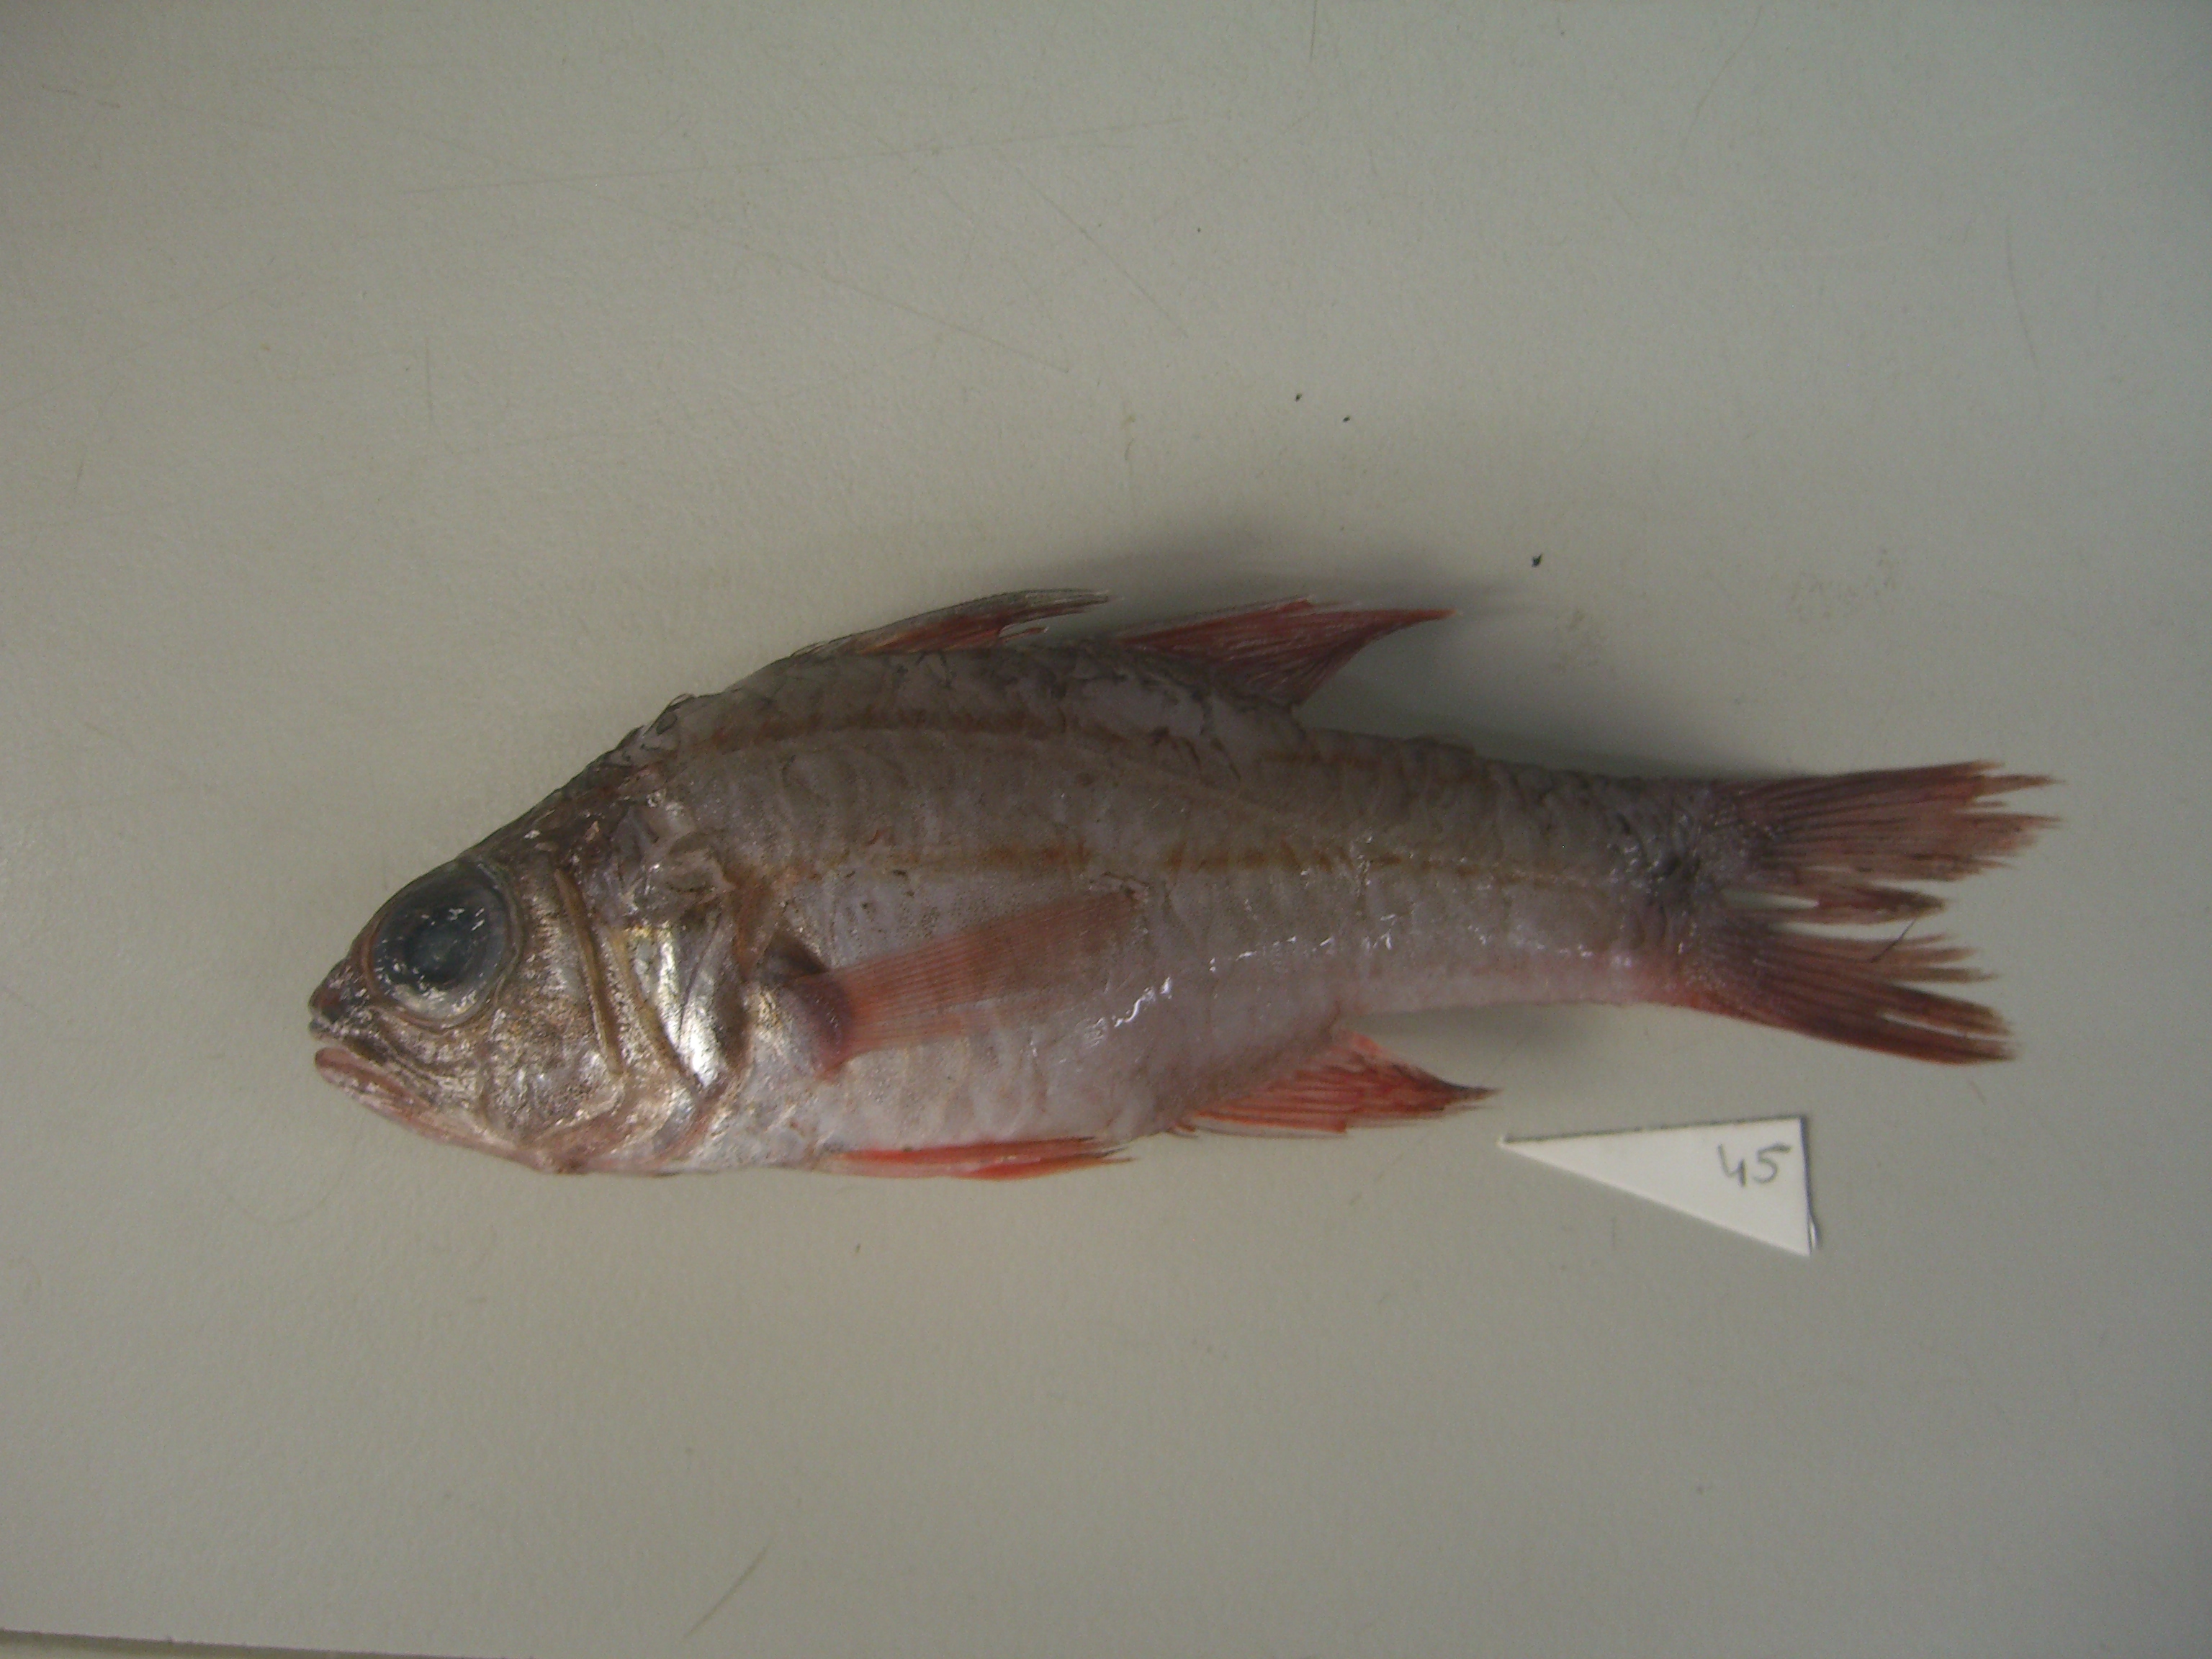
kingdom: Animalia
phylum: Chordata
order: Perciformes
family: Apogonidae
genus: Ostorhinchus
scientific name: Ostorhinchus doederleini
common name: Doederlein's cardinalfish
